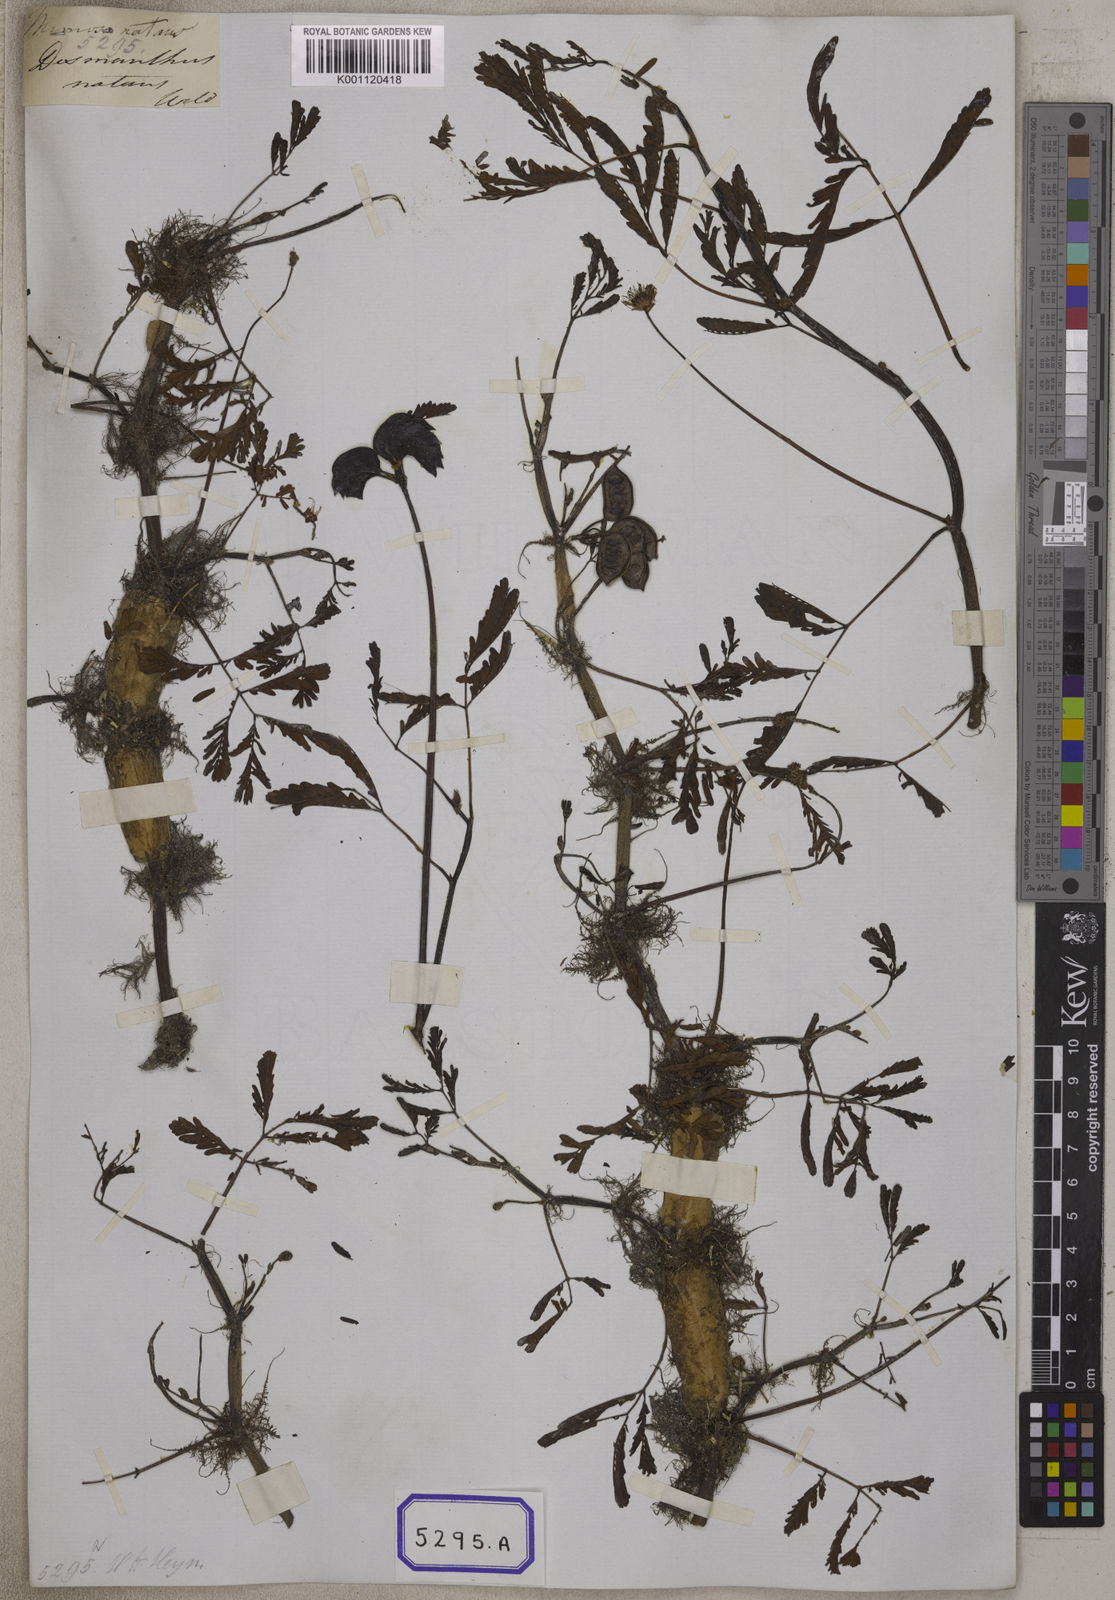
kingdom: Plantae
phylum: Tracheophyta
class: Magnoliopsida
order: Fabales
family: Fabaceae
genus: Neptunia
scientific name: Neptunia prostrata
